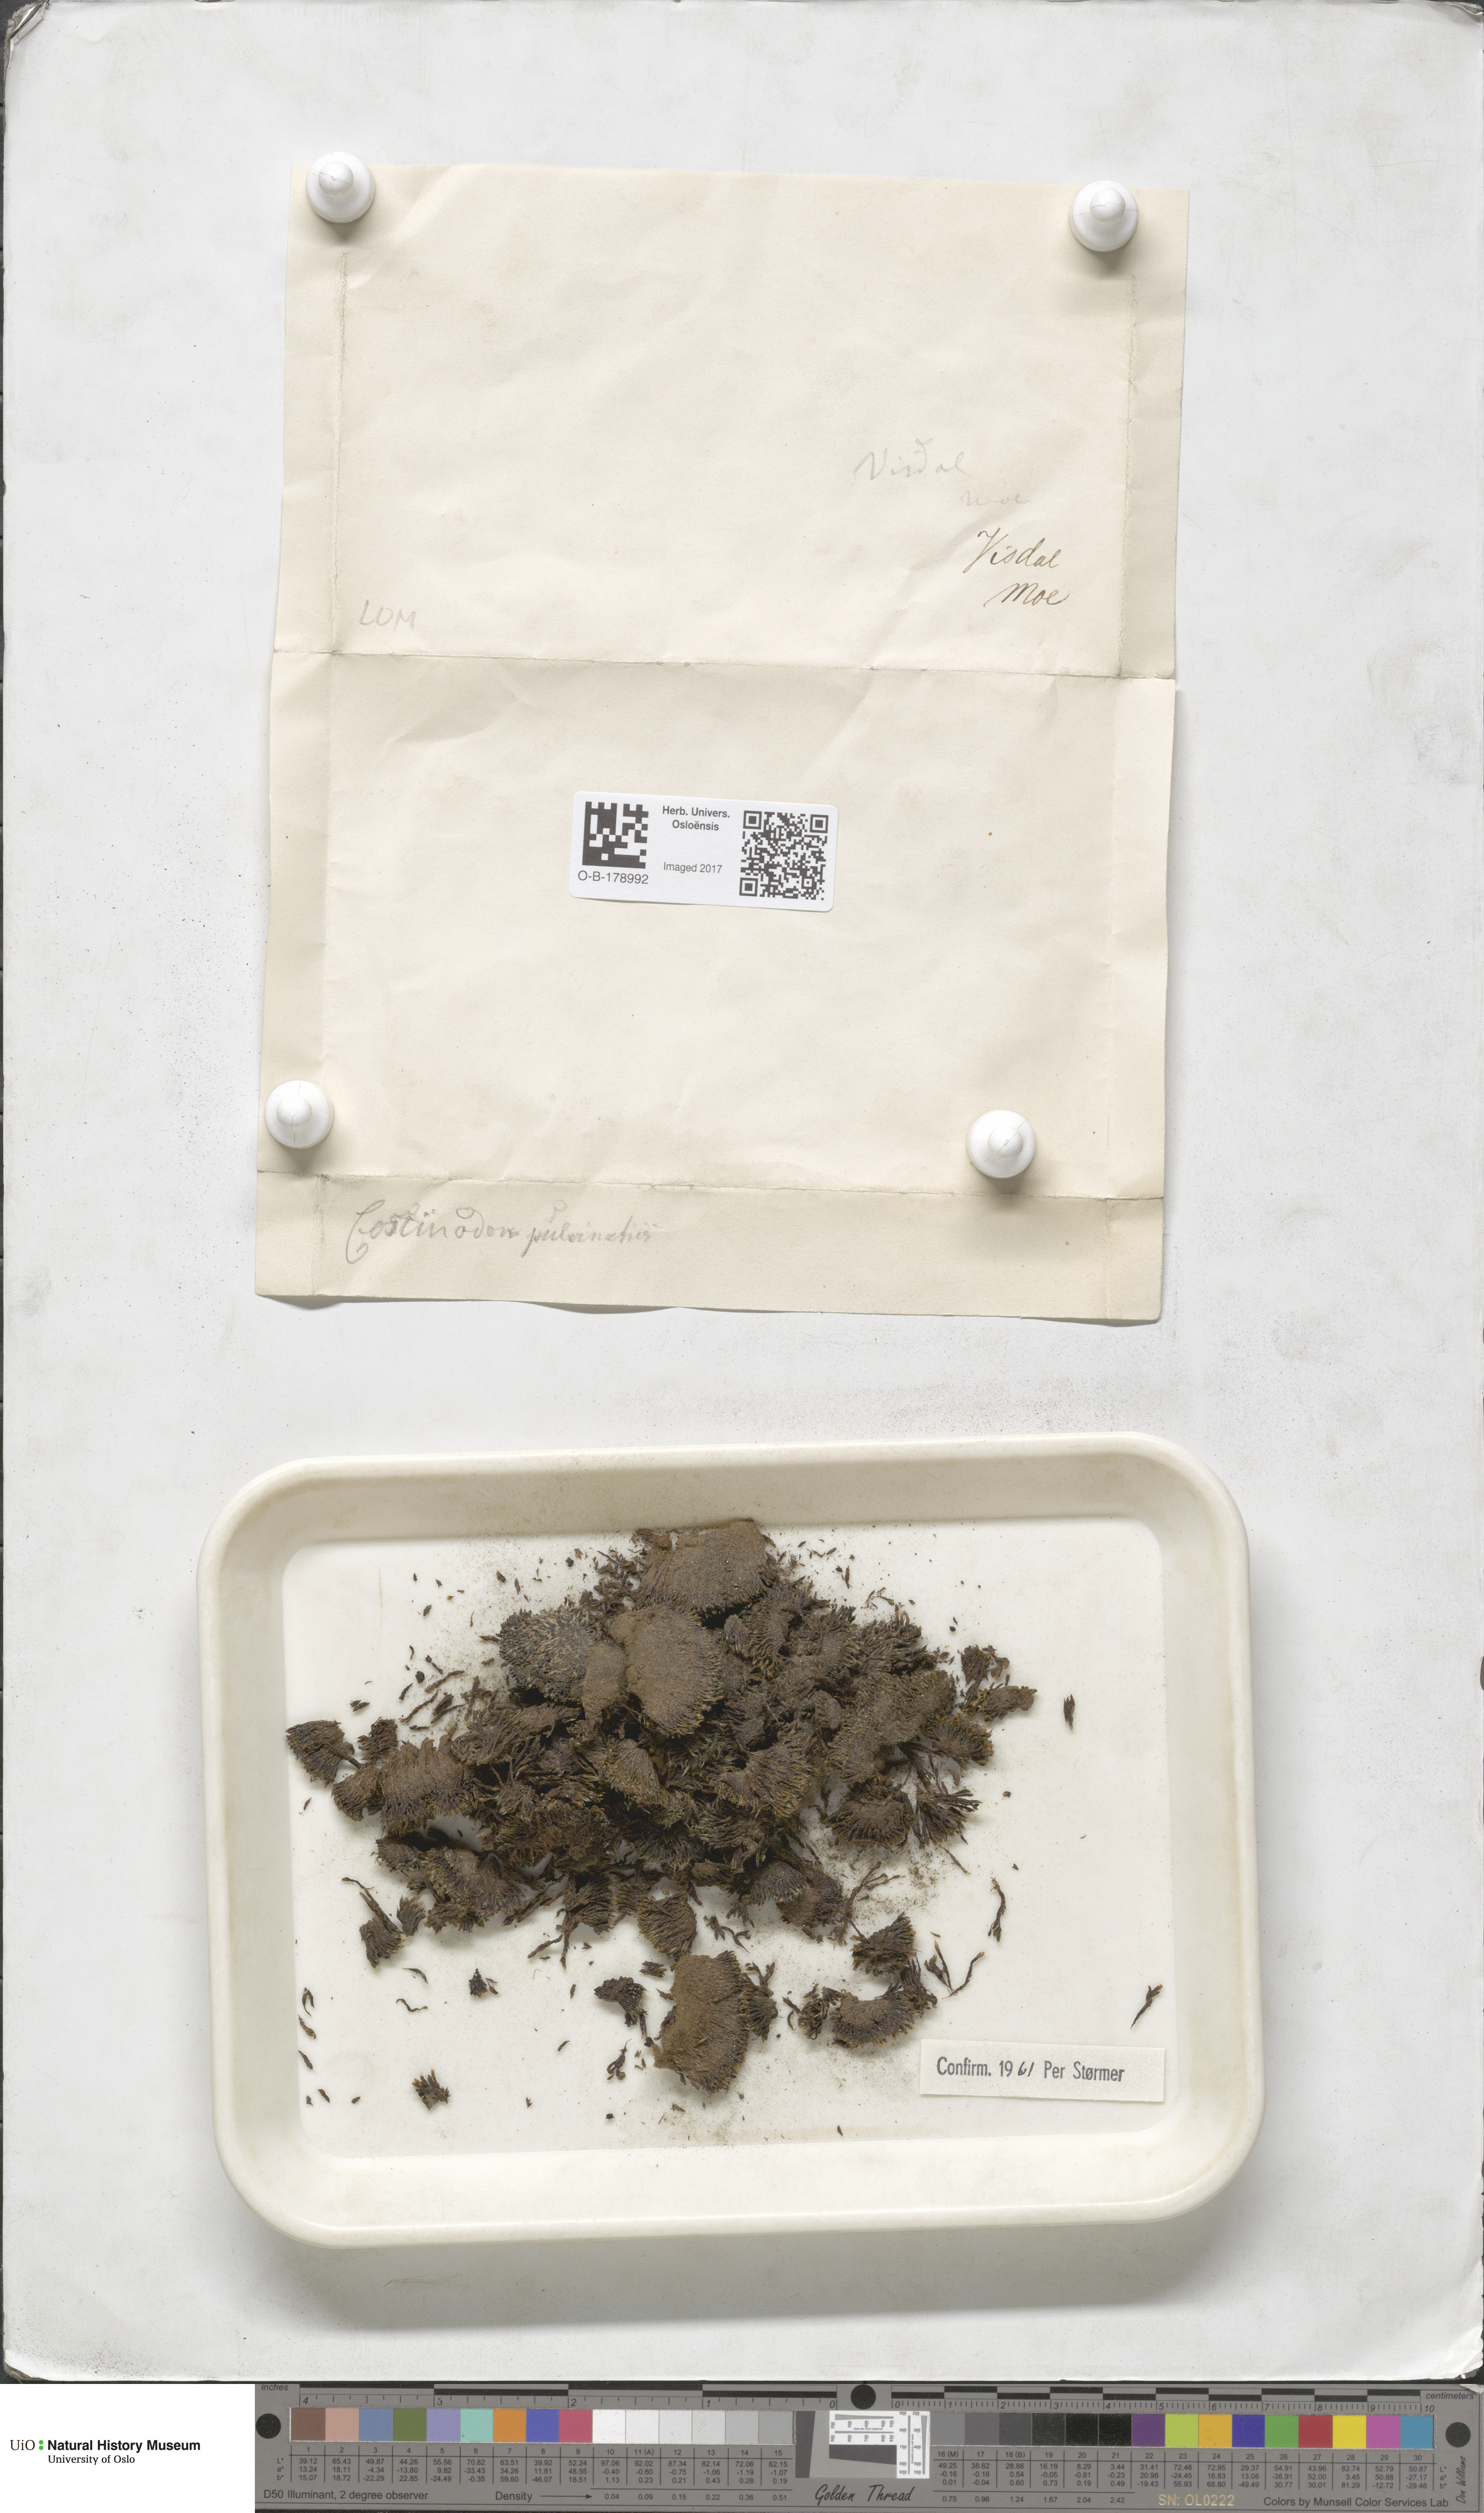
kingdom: Plantae
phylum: Bryophyta
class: Bryopsida
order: Bartramiales
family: Bartramiaceae
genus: Conostomum
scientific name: Conostomum tetragonum
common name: Helmet moss
